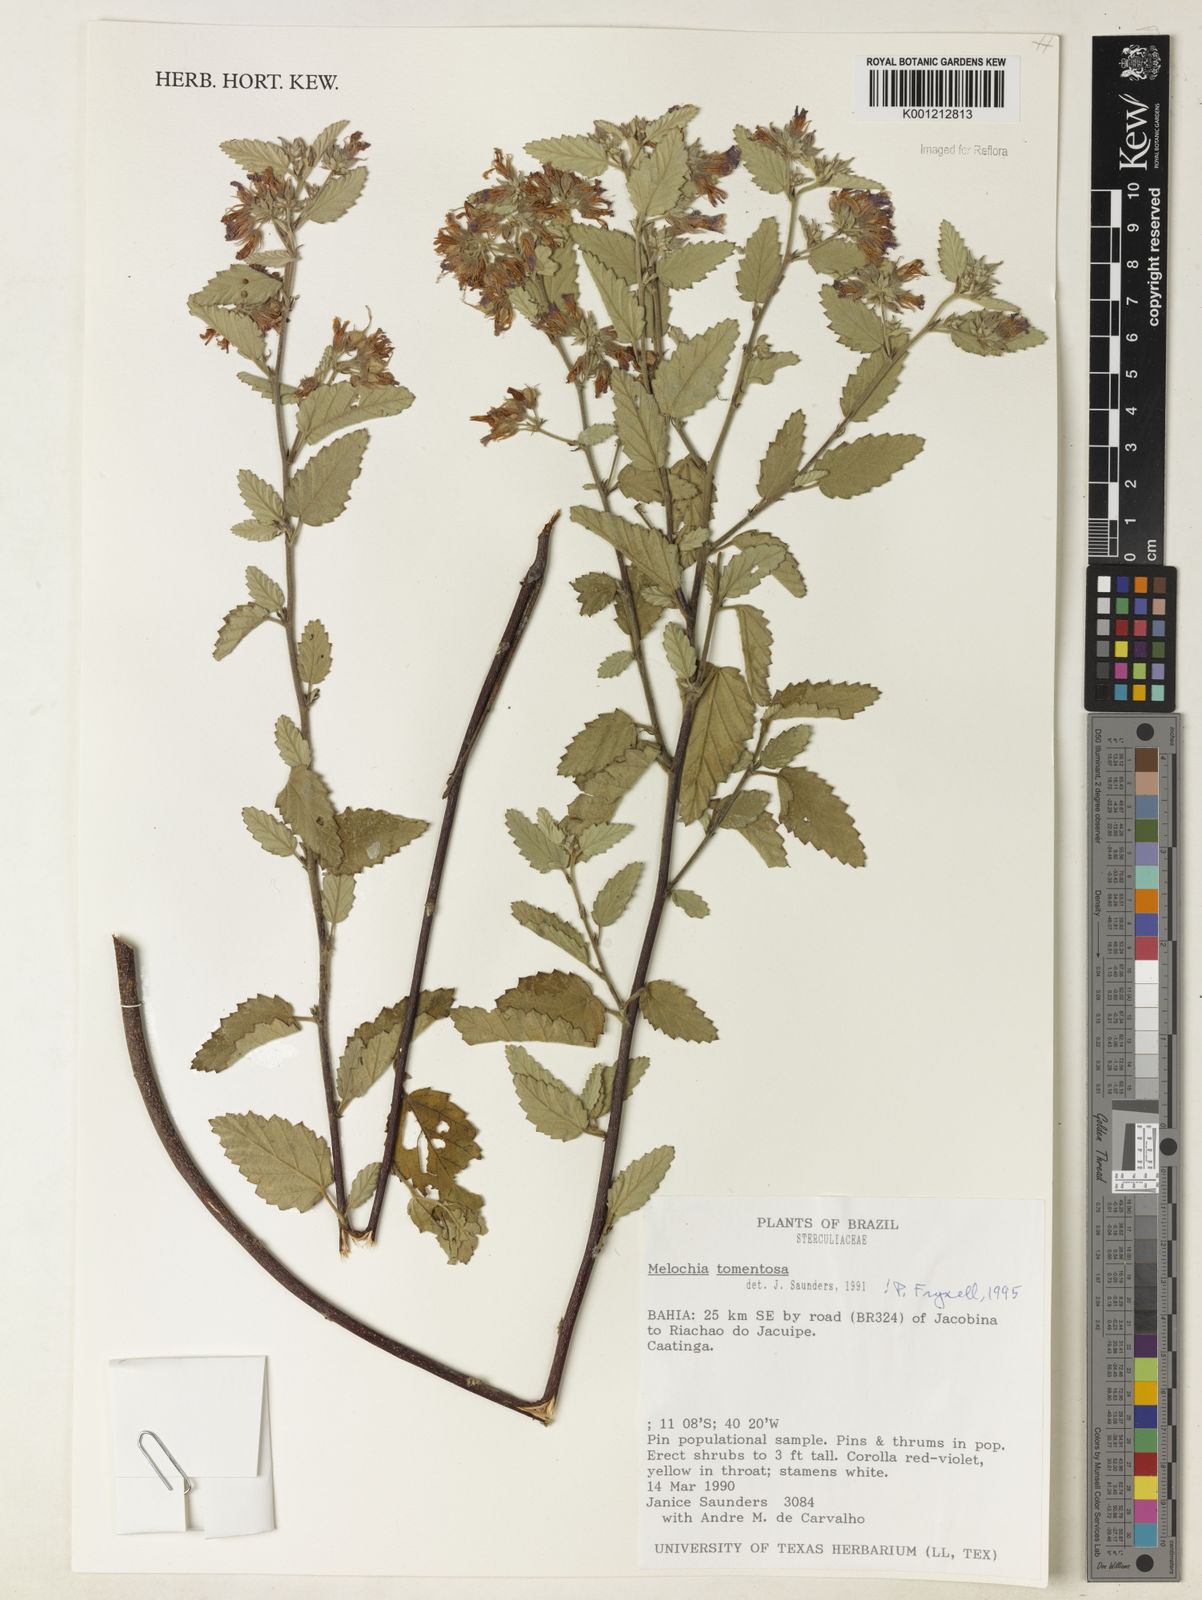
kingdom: Plantae
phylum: Tracheophyta
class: Magnoliopsida
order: Malvales
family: Malvaceae
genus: Melochia
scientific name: Melochia tomentosa
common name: Black torch
